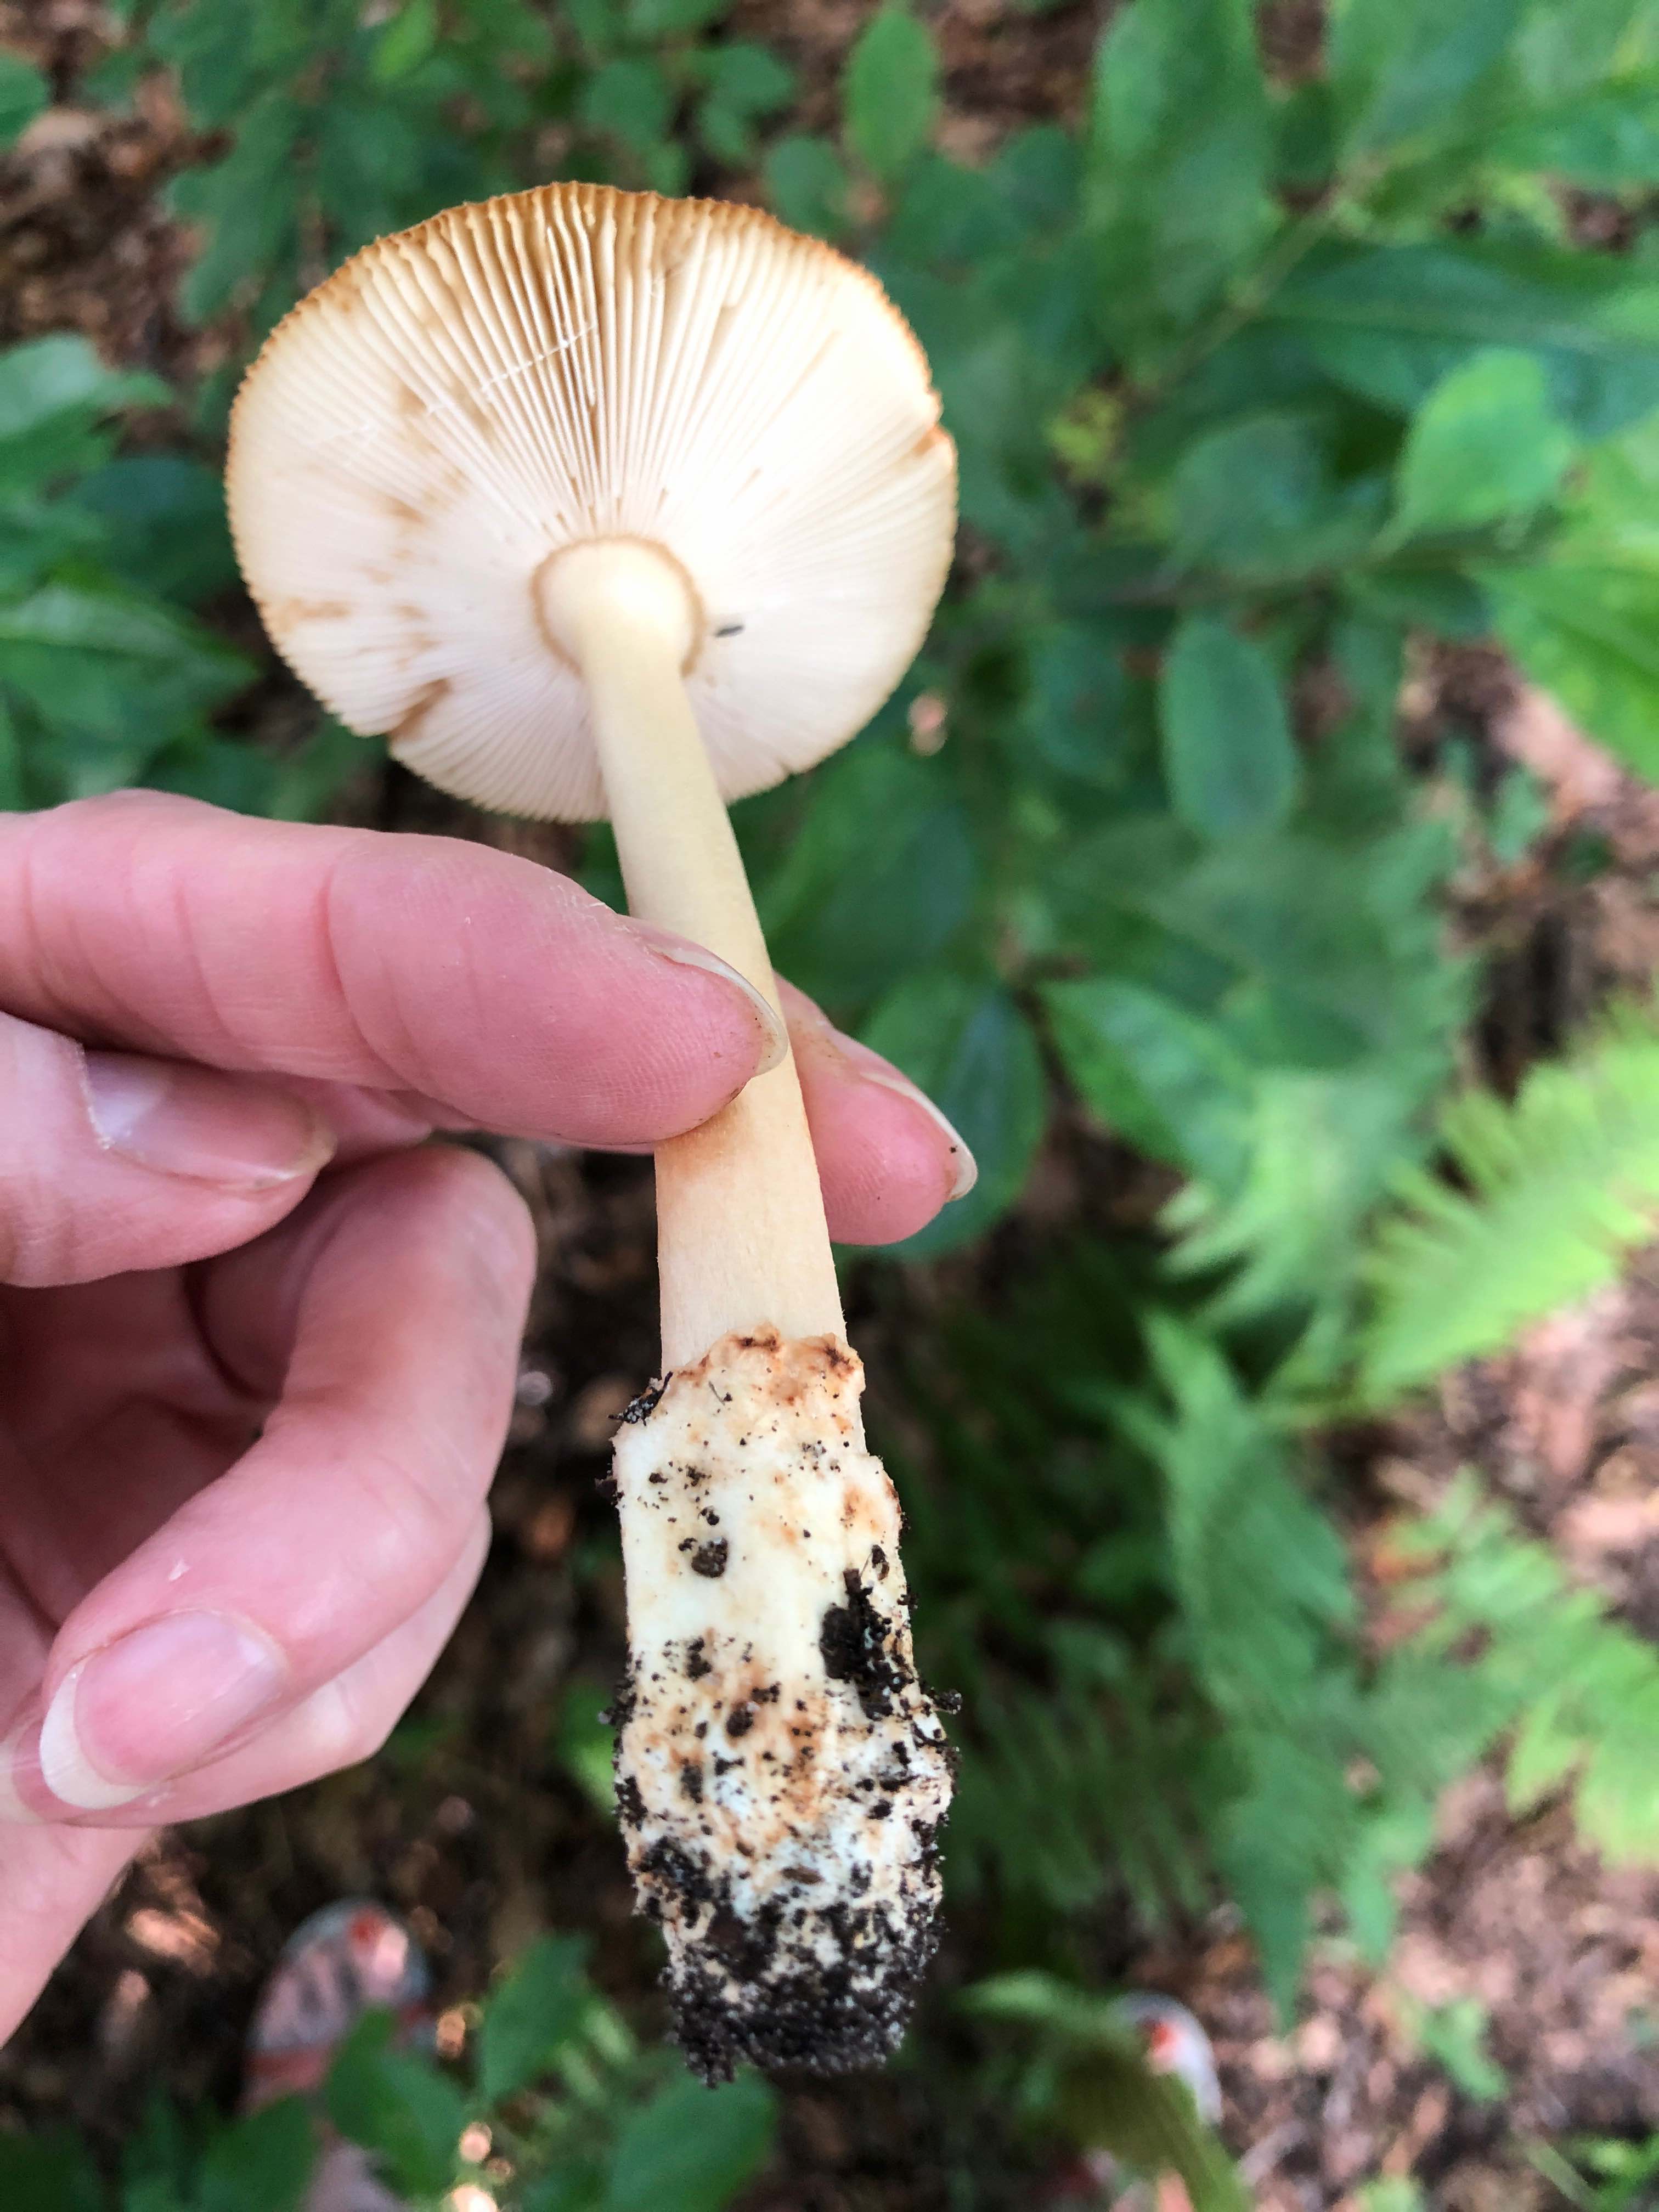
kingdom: Fungi
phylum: Basidiomycota
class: Agaricomycetes
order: Agaricales
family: Amanitaceae
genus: Amanita
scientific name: Amanita fulva
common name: brun kam-fluesvamp
